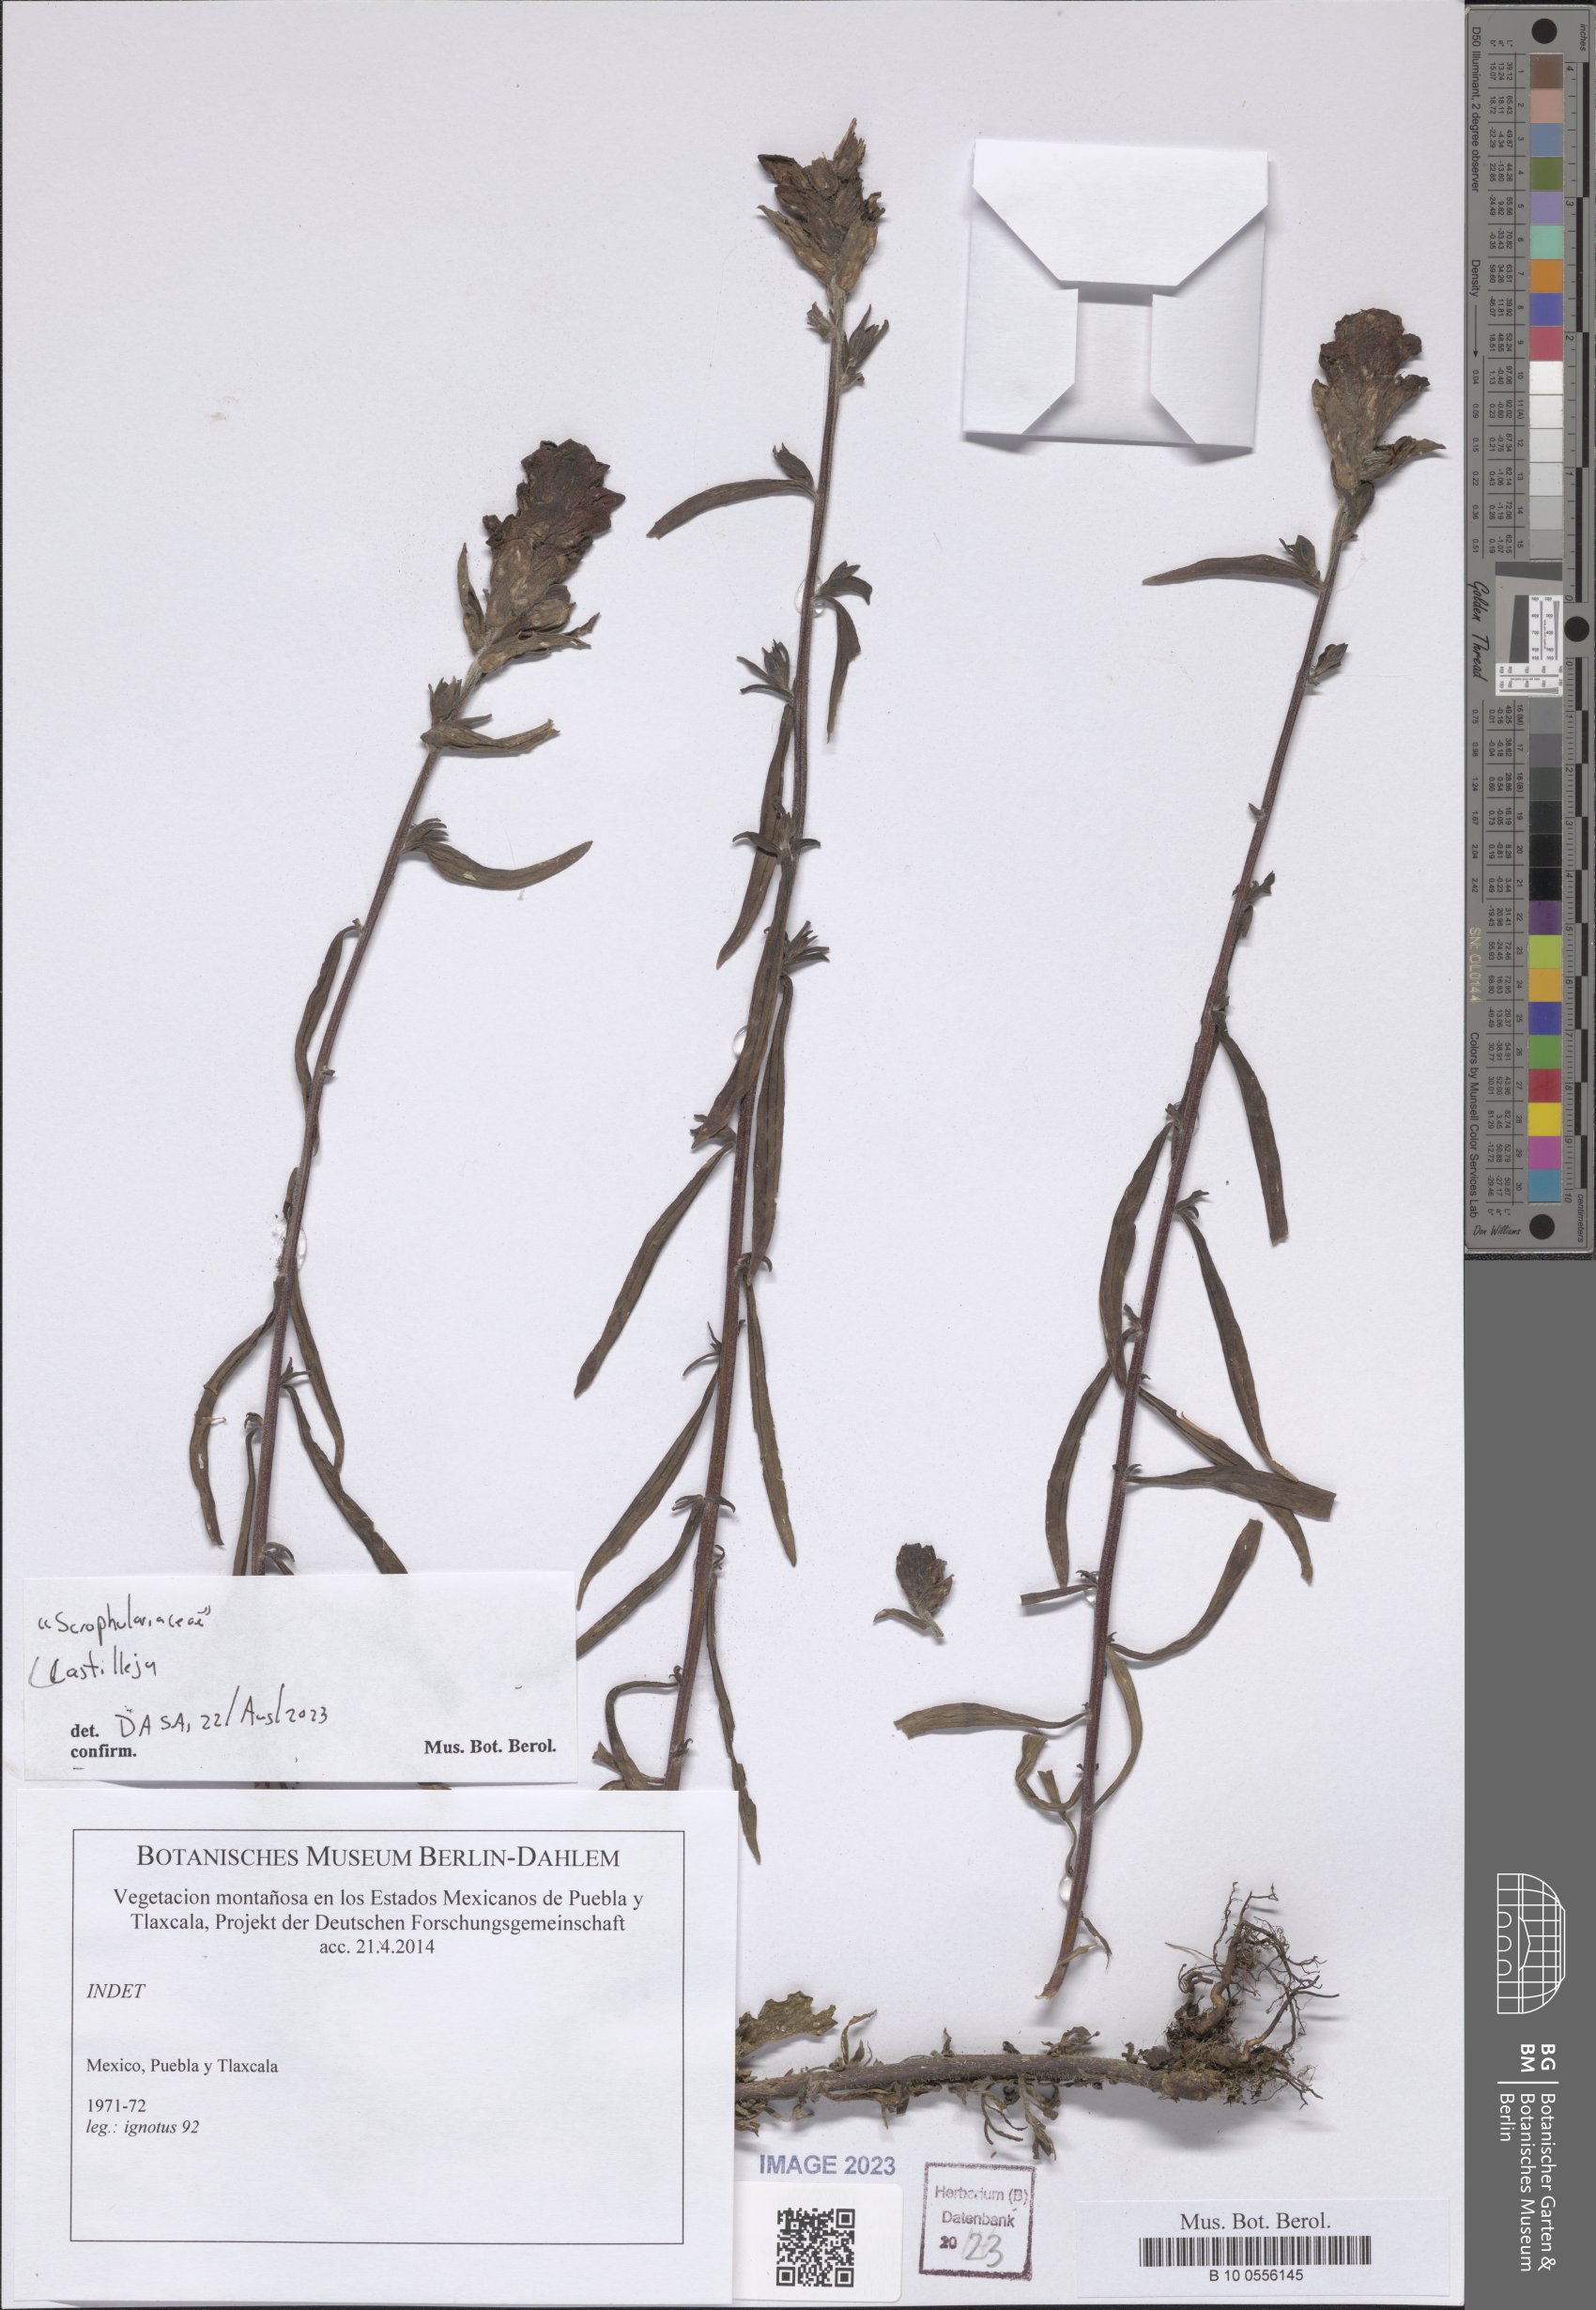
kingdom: Plantae
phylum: Tracheophyta
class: Magnoliopsida
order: Lamiales
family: Orobanchaceae
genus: Castilleja
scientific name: Castilleja
